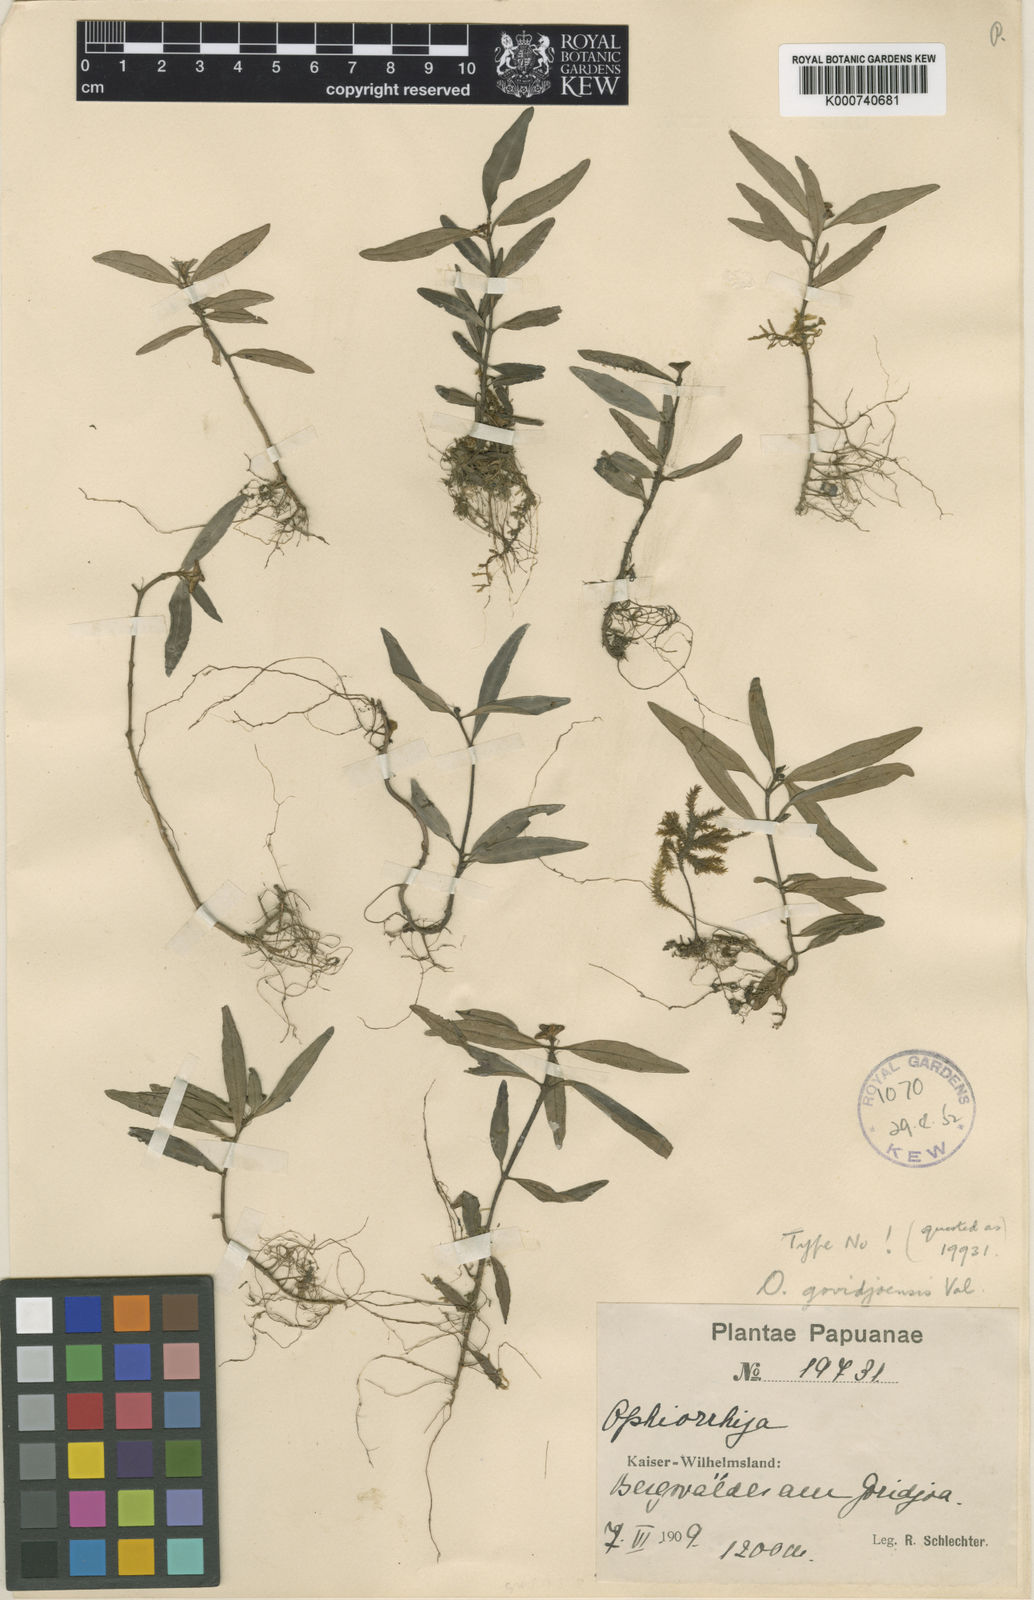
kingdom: Plantae
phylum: Tracheophyta
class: Magnoliopsida
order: Gentianales
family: Rubiaceae
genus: Ophiorrhiza
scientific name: Ophiorrhiza govidjoensis
